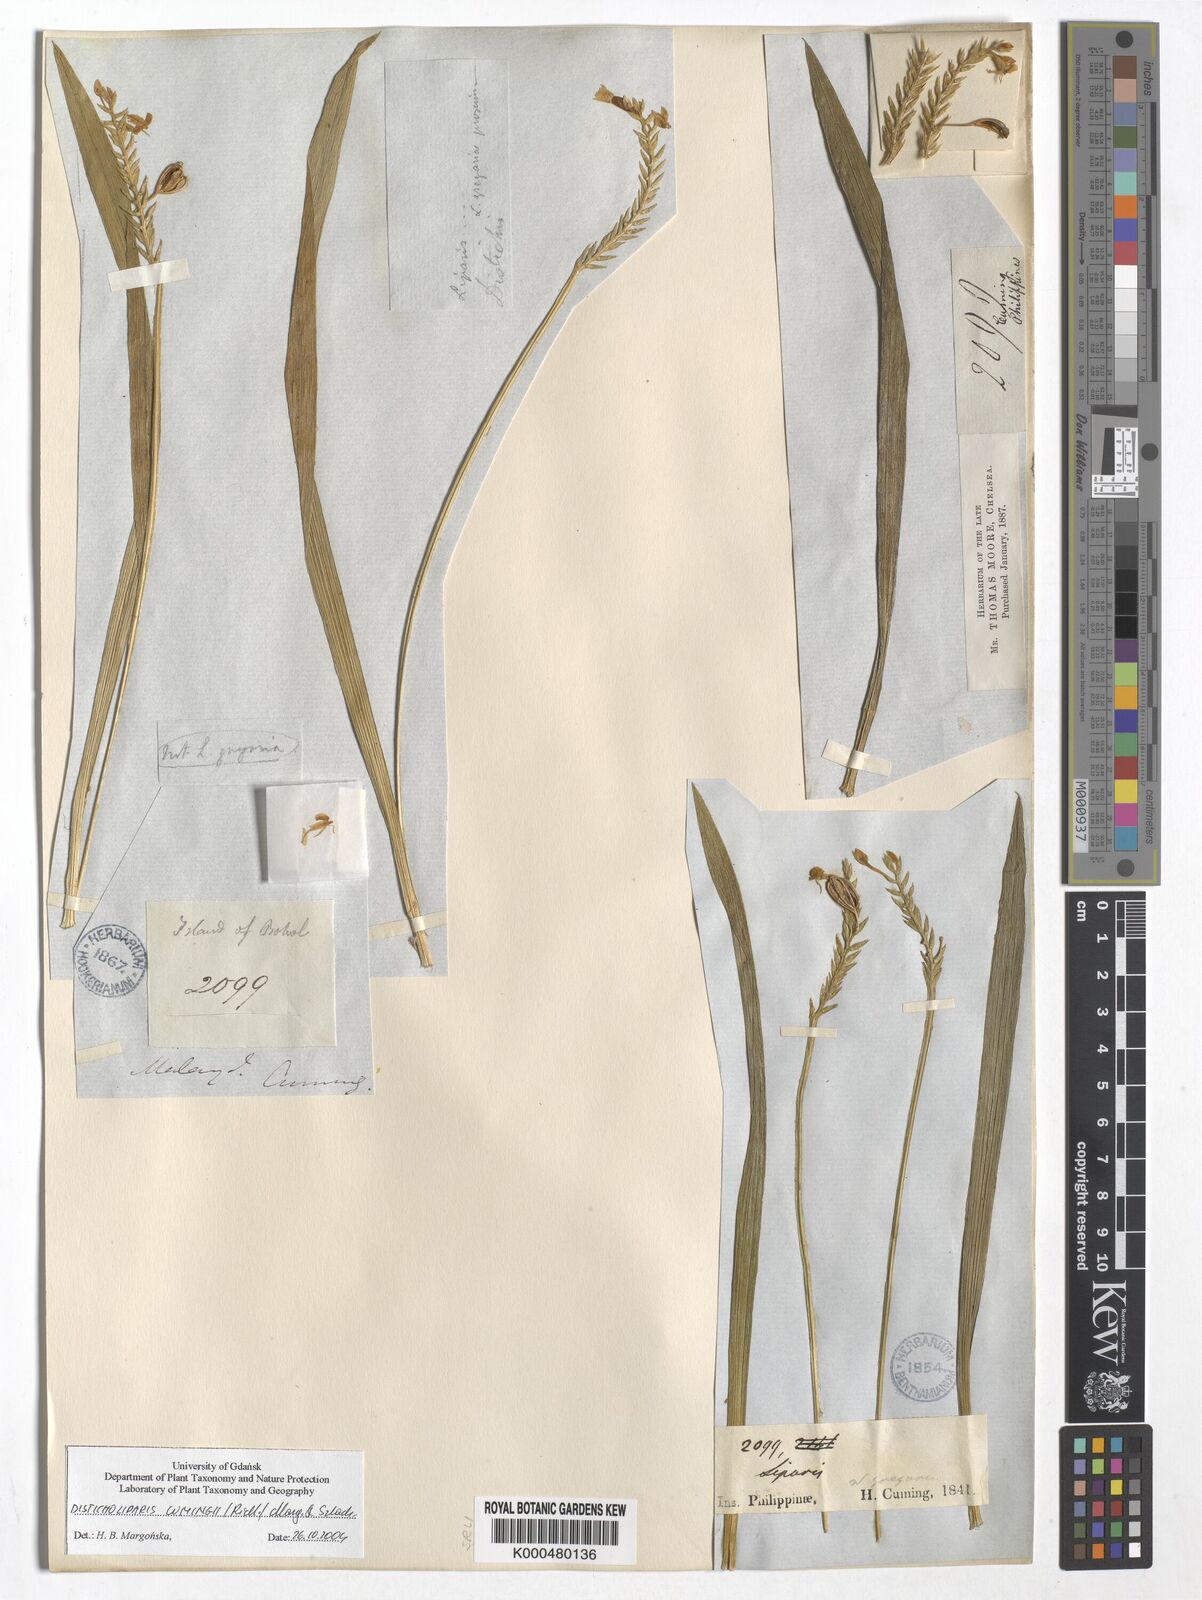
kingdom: Plantae
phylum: Tracheophyta
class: Liliopsida
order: Asparagales
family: Orchidaceae
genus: Liparis
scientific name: Liparis philippinensis
